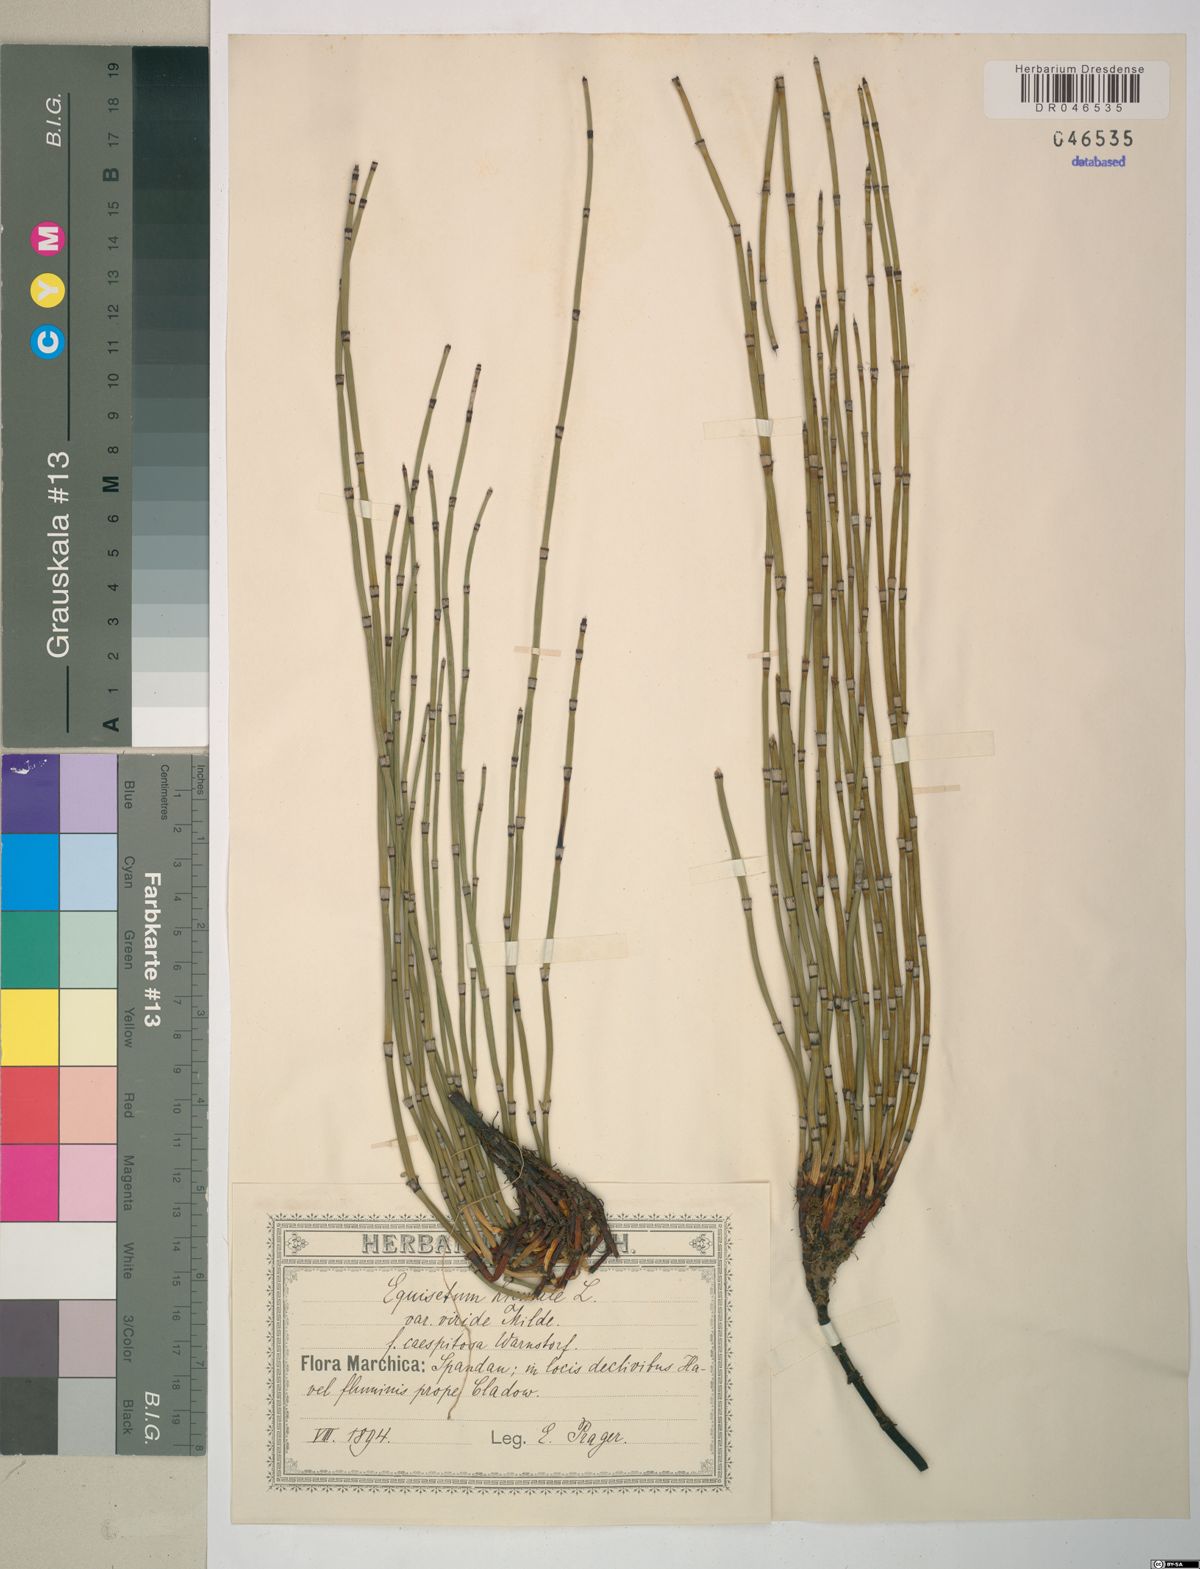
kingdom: Plantae
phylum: Tracheophyta
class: Polypodiopsida
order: Equisetales
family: Equisetaceae
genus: Equisetum
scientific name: Equisetum hyemale
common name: Rough horsetail
